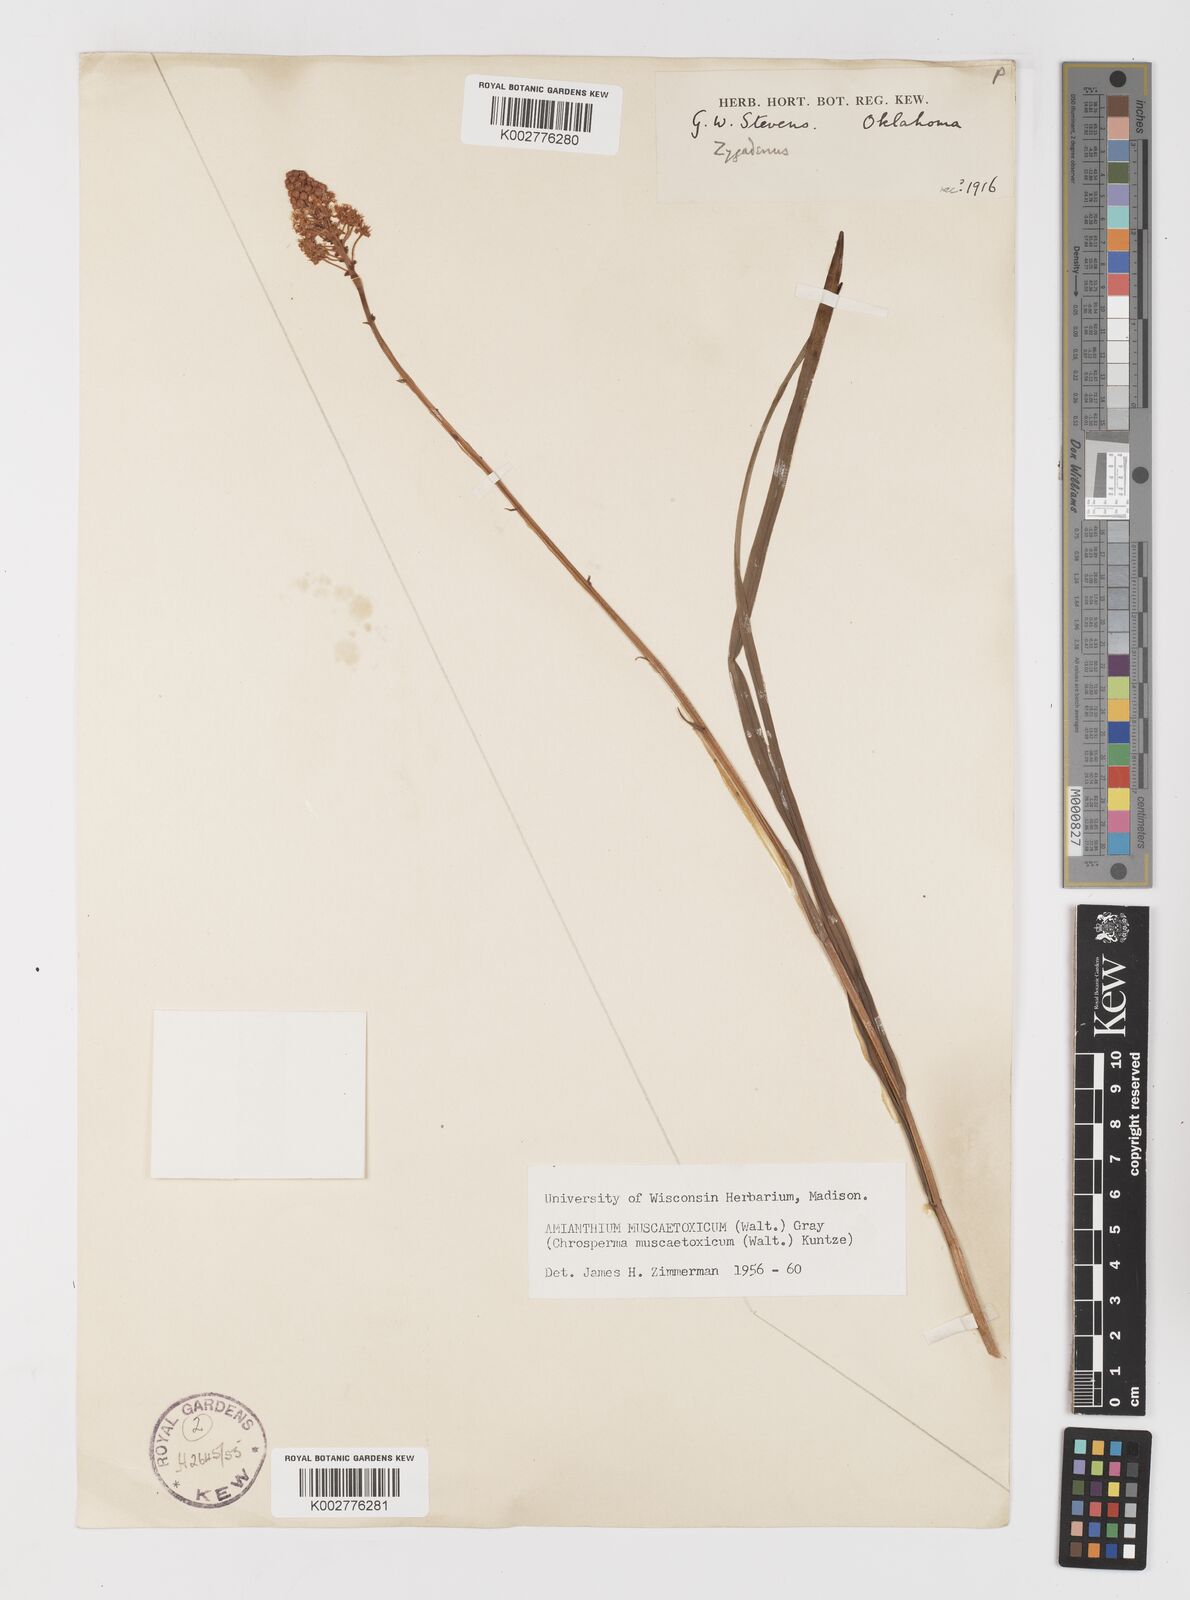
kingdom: Plantae
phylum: Tracheophyta
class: Liliopsida
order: Liliales
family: Melanthiaceae
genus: Amianthium
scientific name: Amianthium muscitoxicum
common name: Fly-poison
